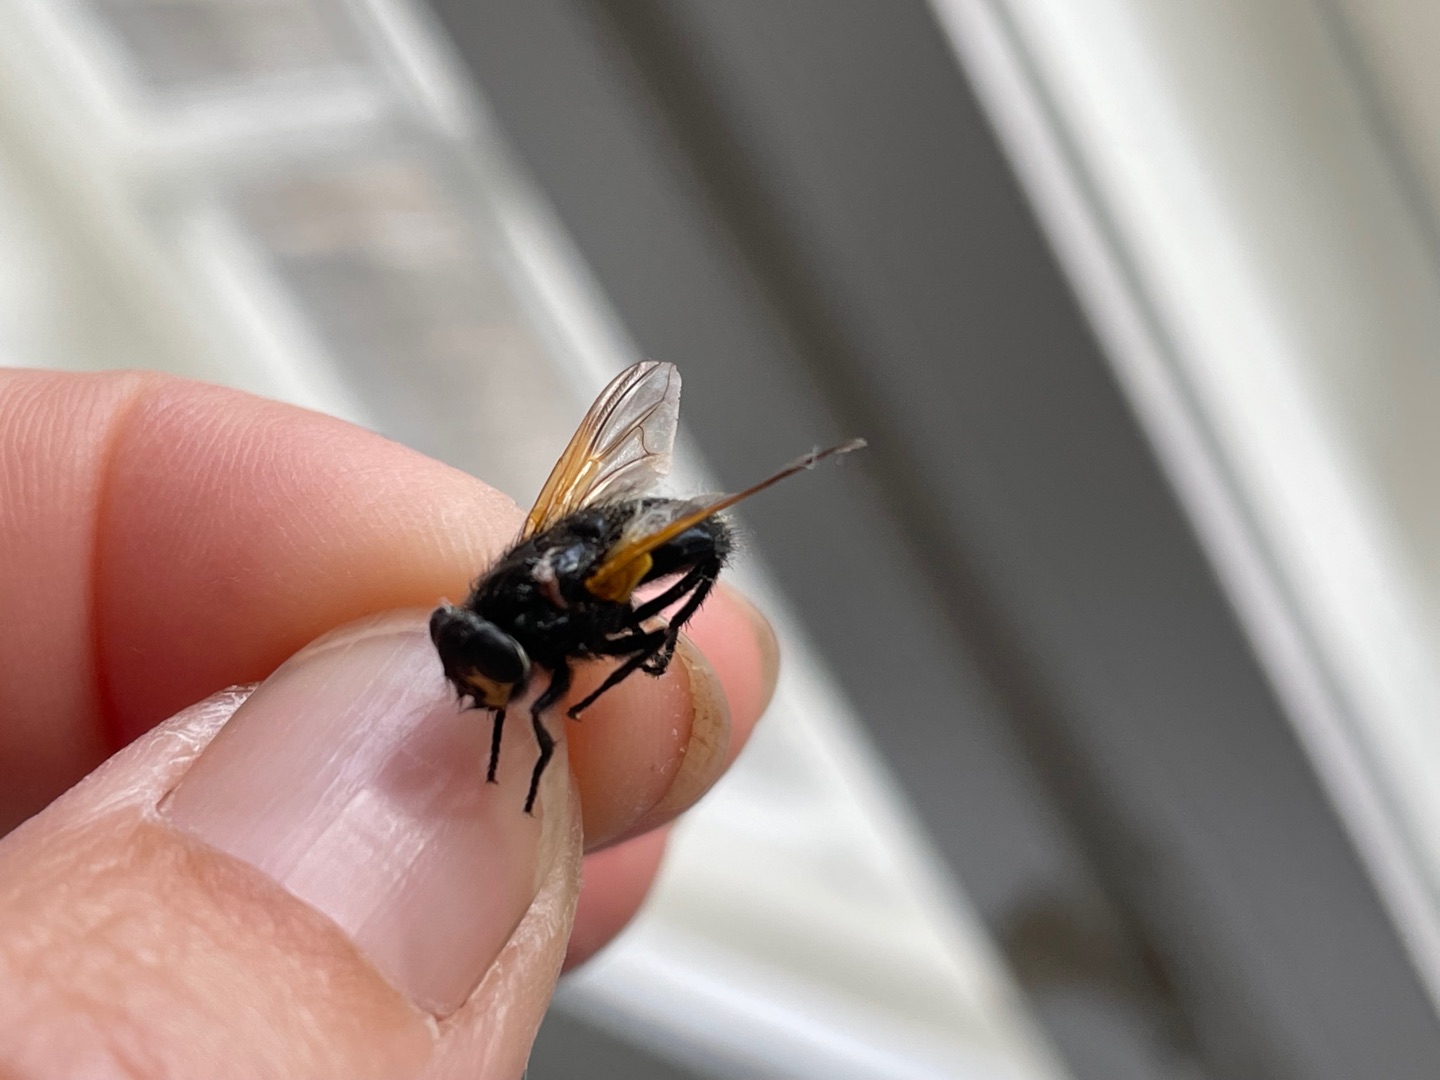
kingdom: Animalia
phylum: Arthropoda
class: Insecta
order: Diptera
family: Muscidae
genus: Mesembrina
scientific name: Mesembrina meridiana
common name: Gulvinget flue
